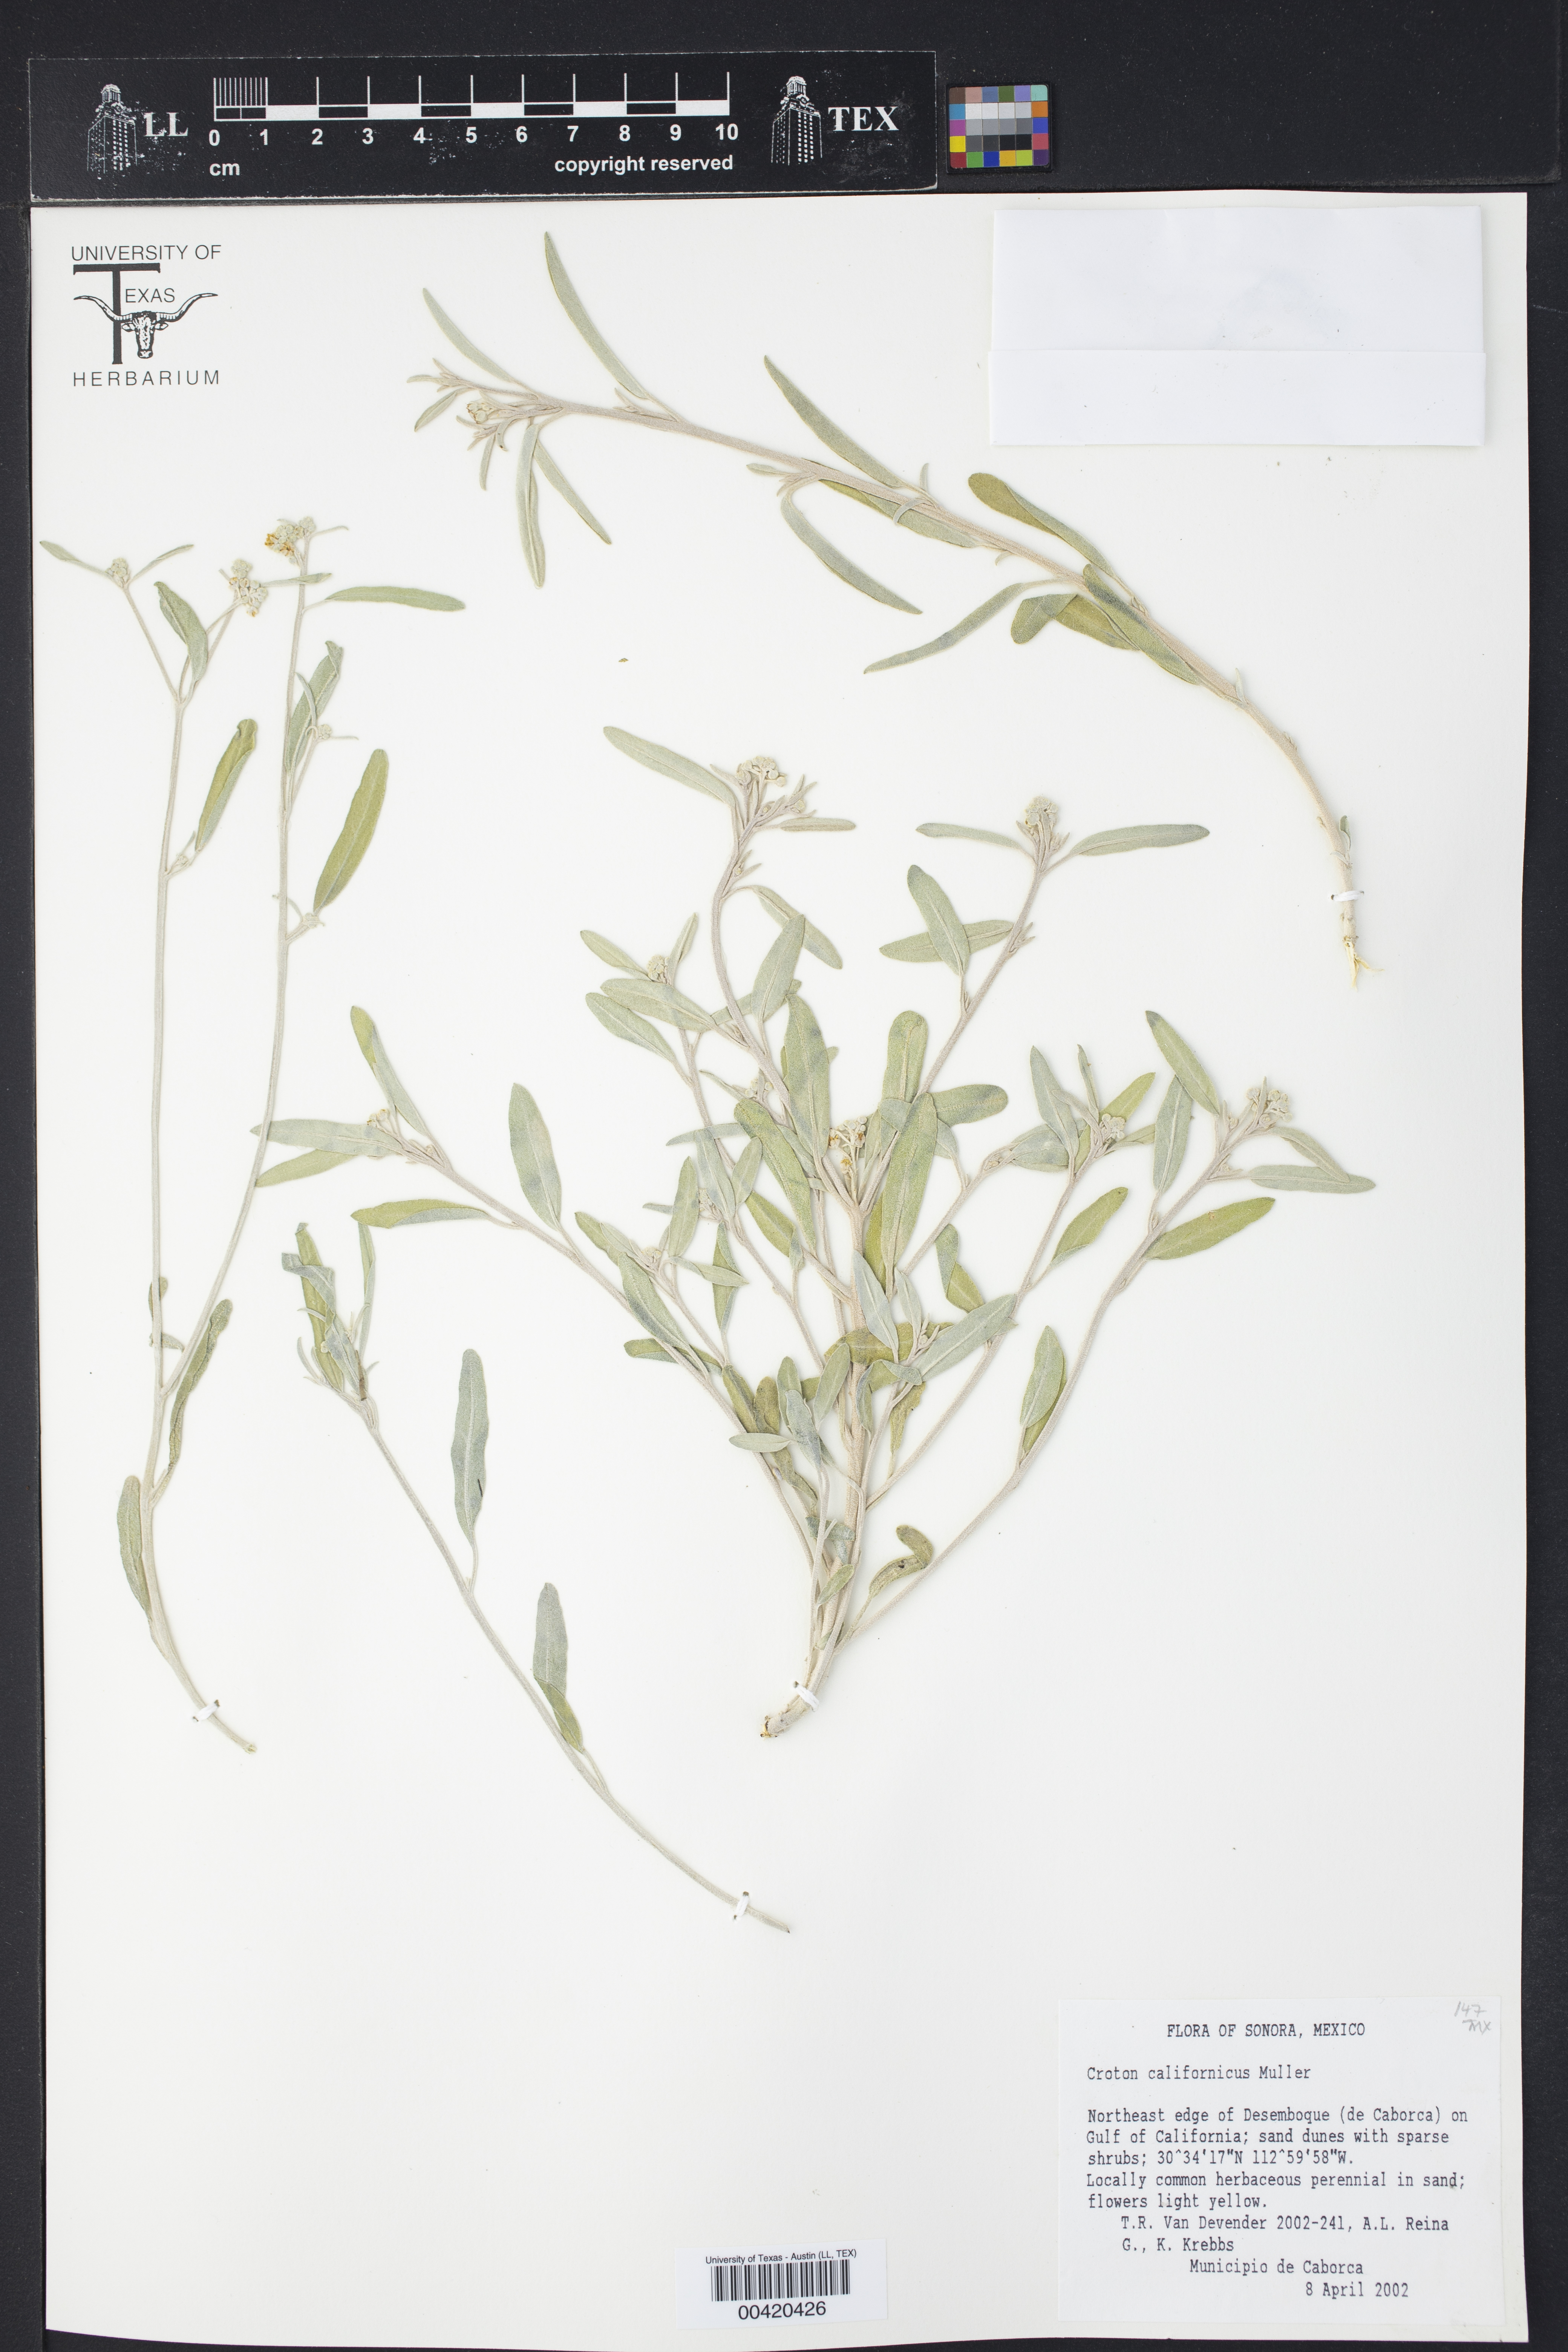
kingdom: Plantae
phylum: Tracheophyta
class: Magnoliopsida
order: Malpighiales
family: Euphorbiaceae
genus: Croton
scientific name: Croton californicus
